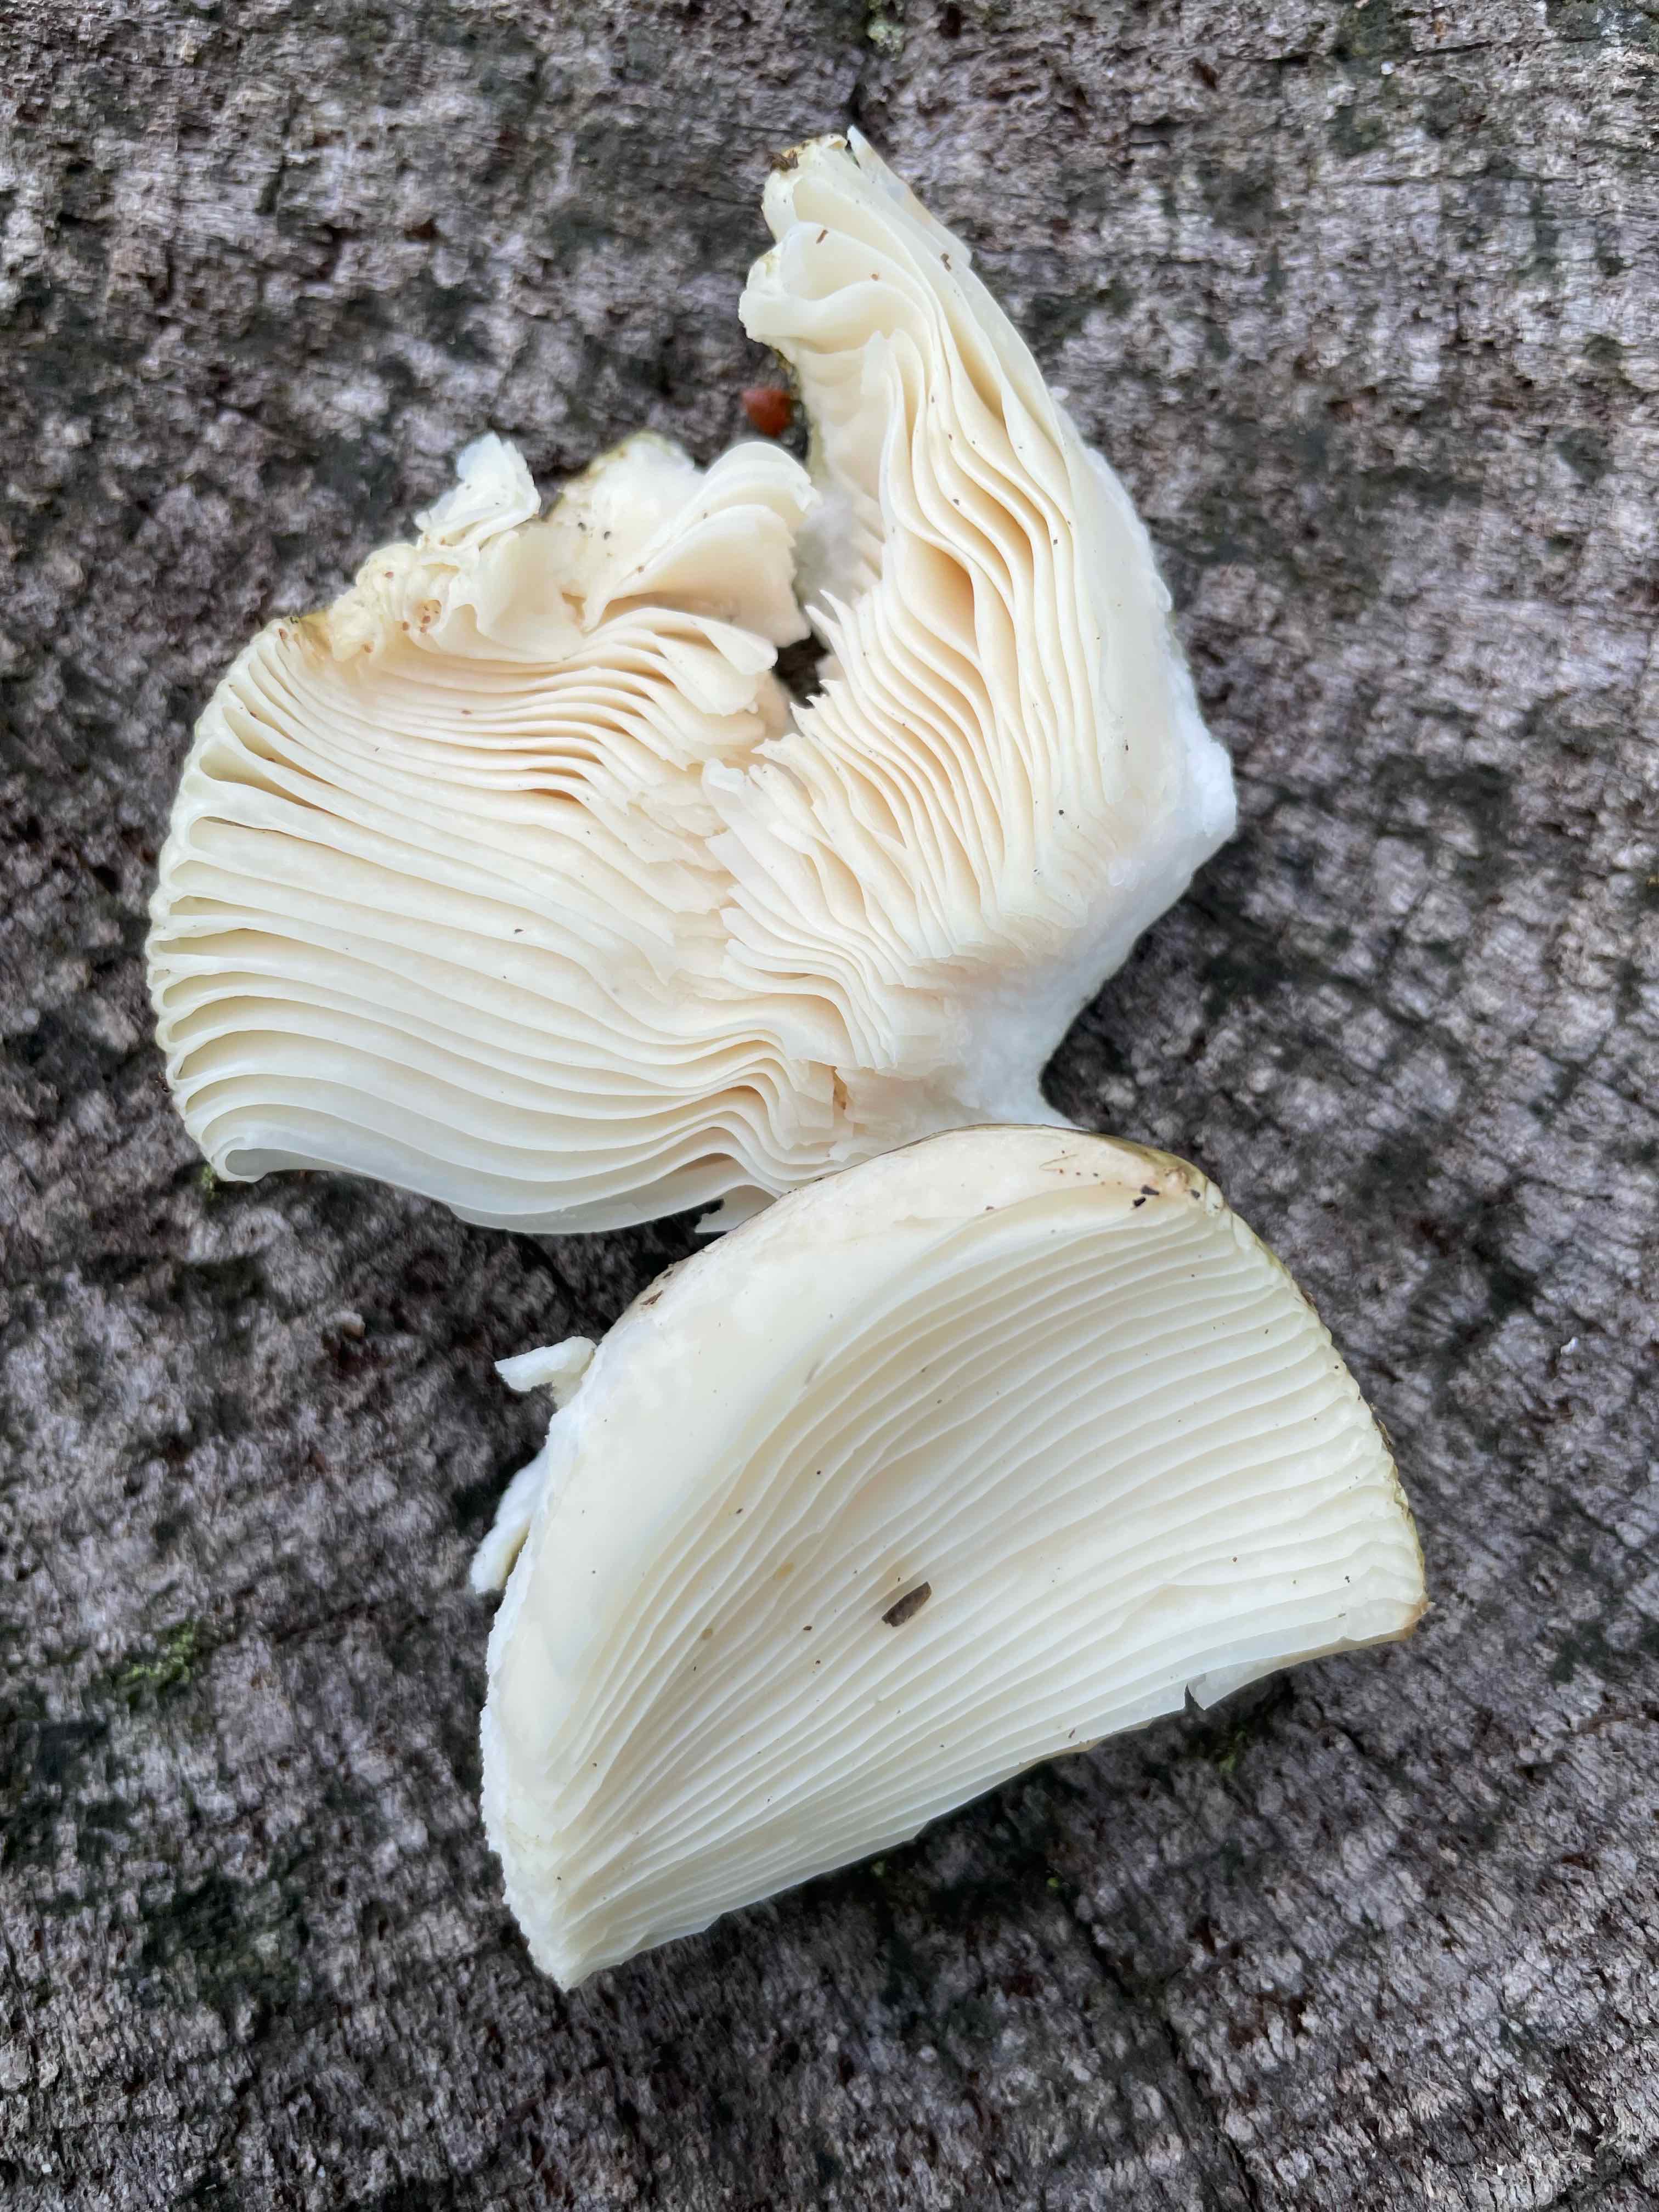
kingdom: Fungi
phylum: Basidiomycota
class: Agaricomycetes
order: Russulales
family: Russulaceae
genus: Russula
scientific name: Russula
